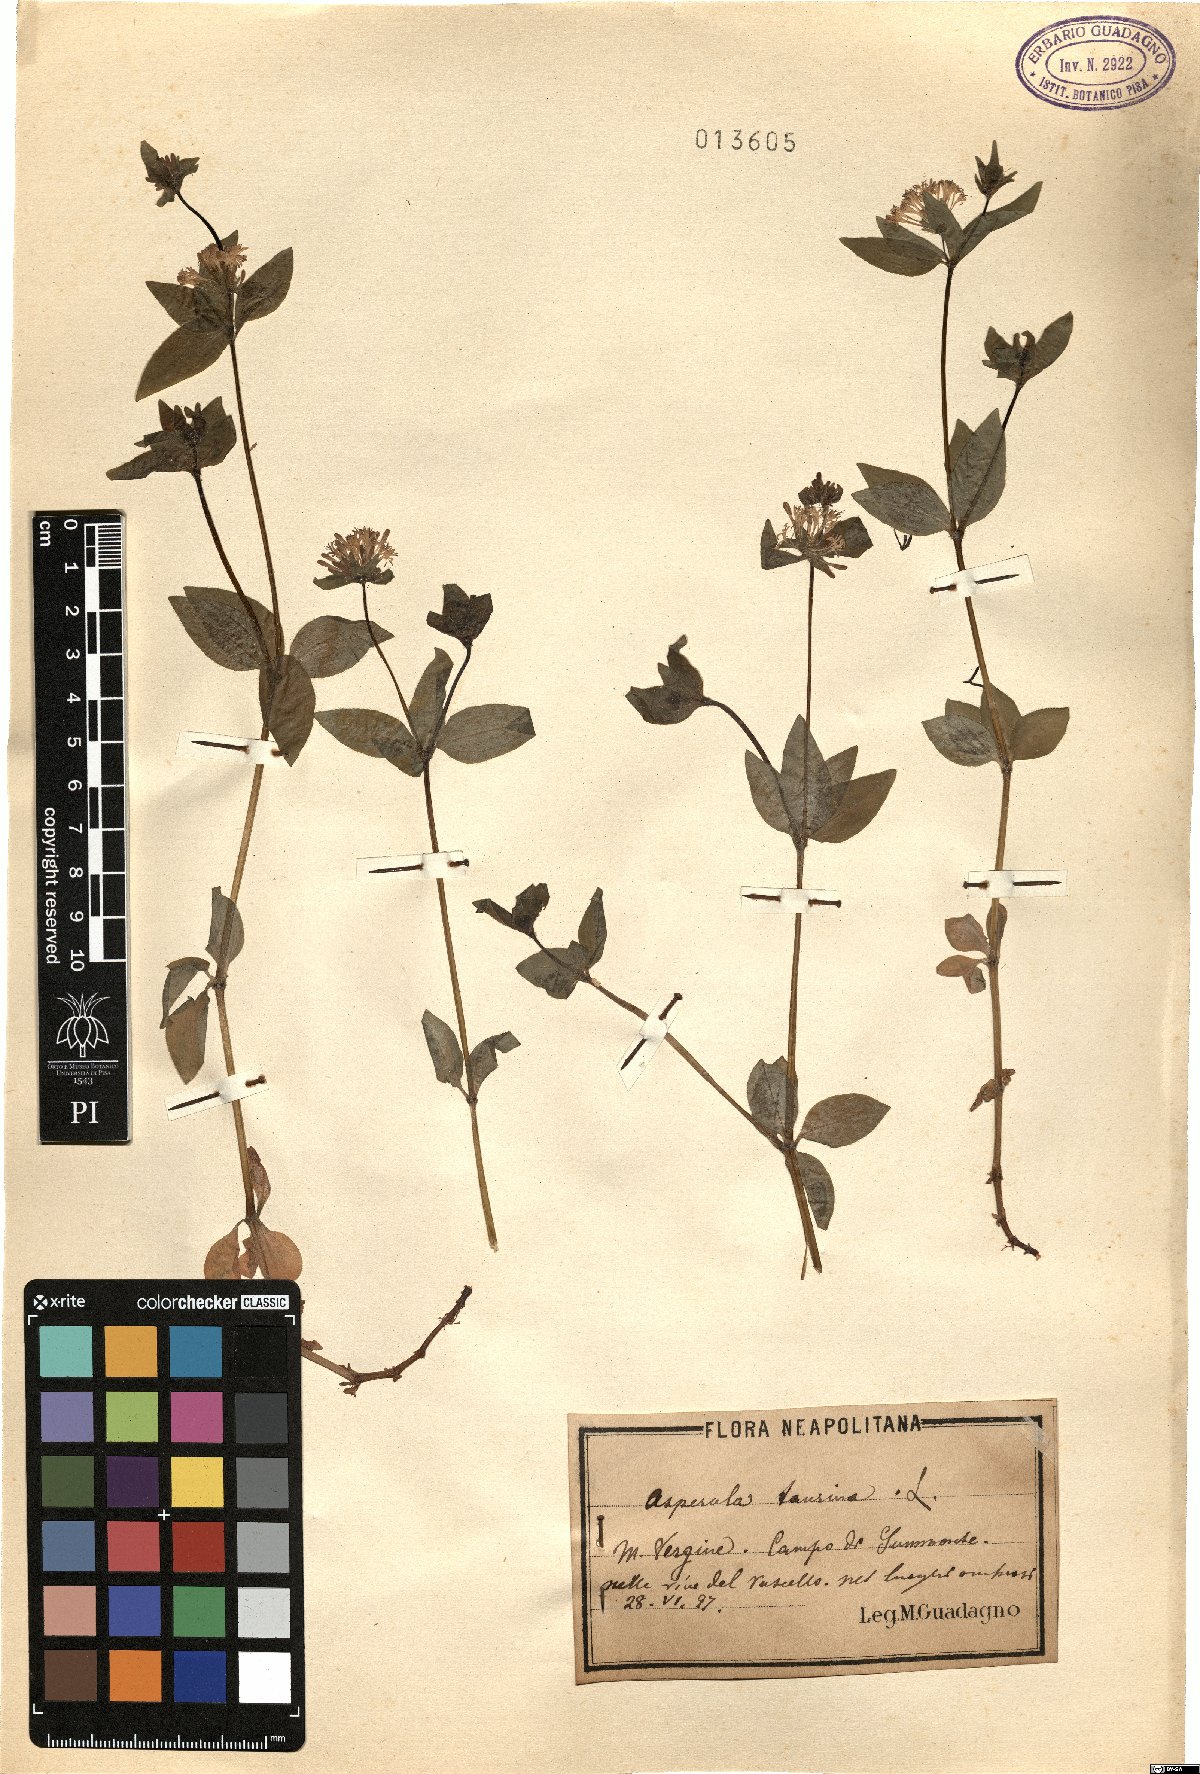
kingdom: Plantae
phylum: Tracheophyta
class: Magnoliopsida
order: Gentianales
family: Rubiaceae
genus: Asperula
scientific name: Asperula taurina
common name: Pink woodruff
